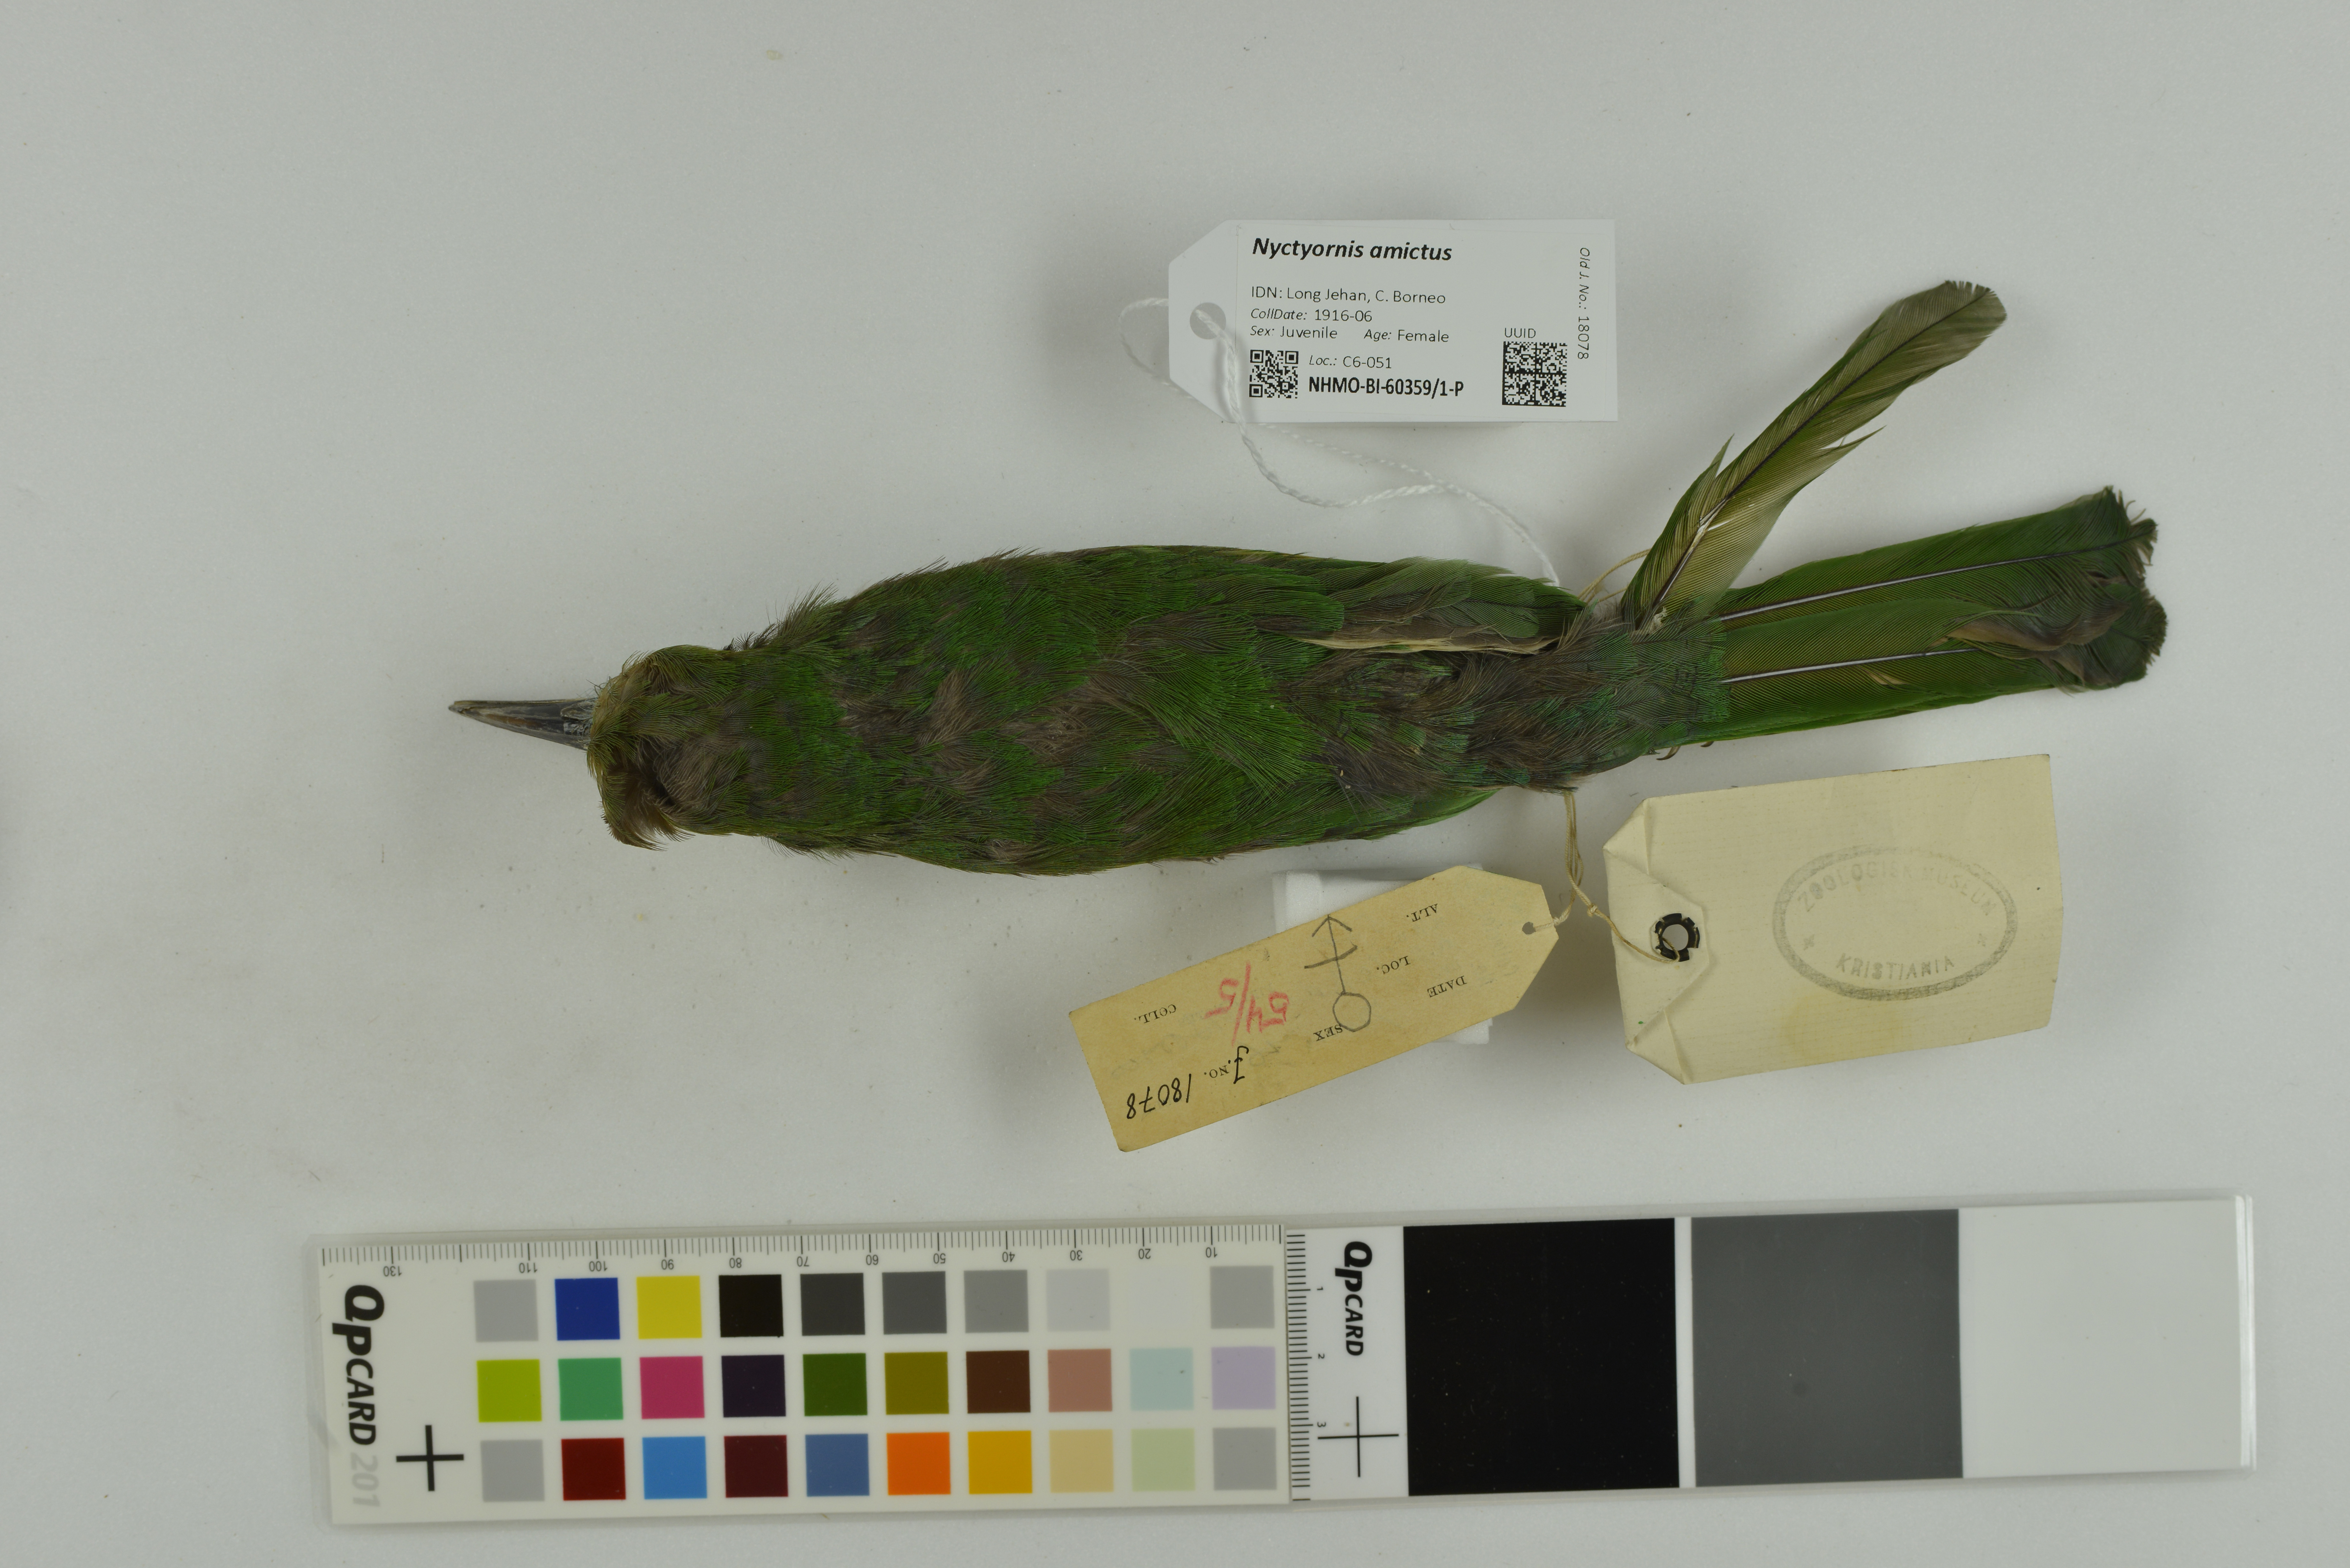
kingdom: Animalia
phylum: Chordata
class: Aves
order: Coraciiformes
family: Meropidae
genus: Nyctyornis
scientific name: Nyctyornis amictus
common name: Red-bearded bee-eater
